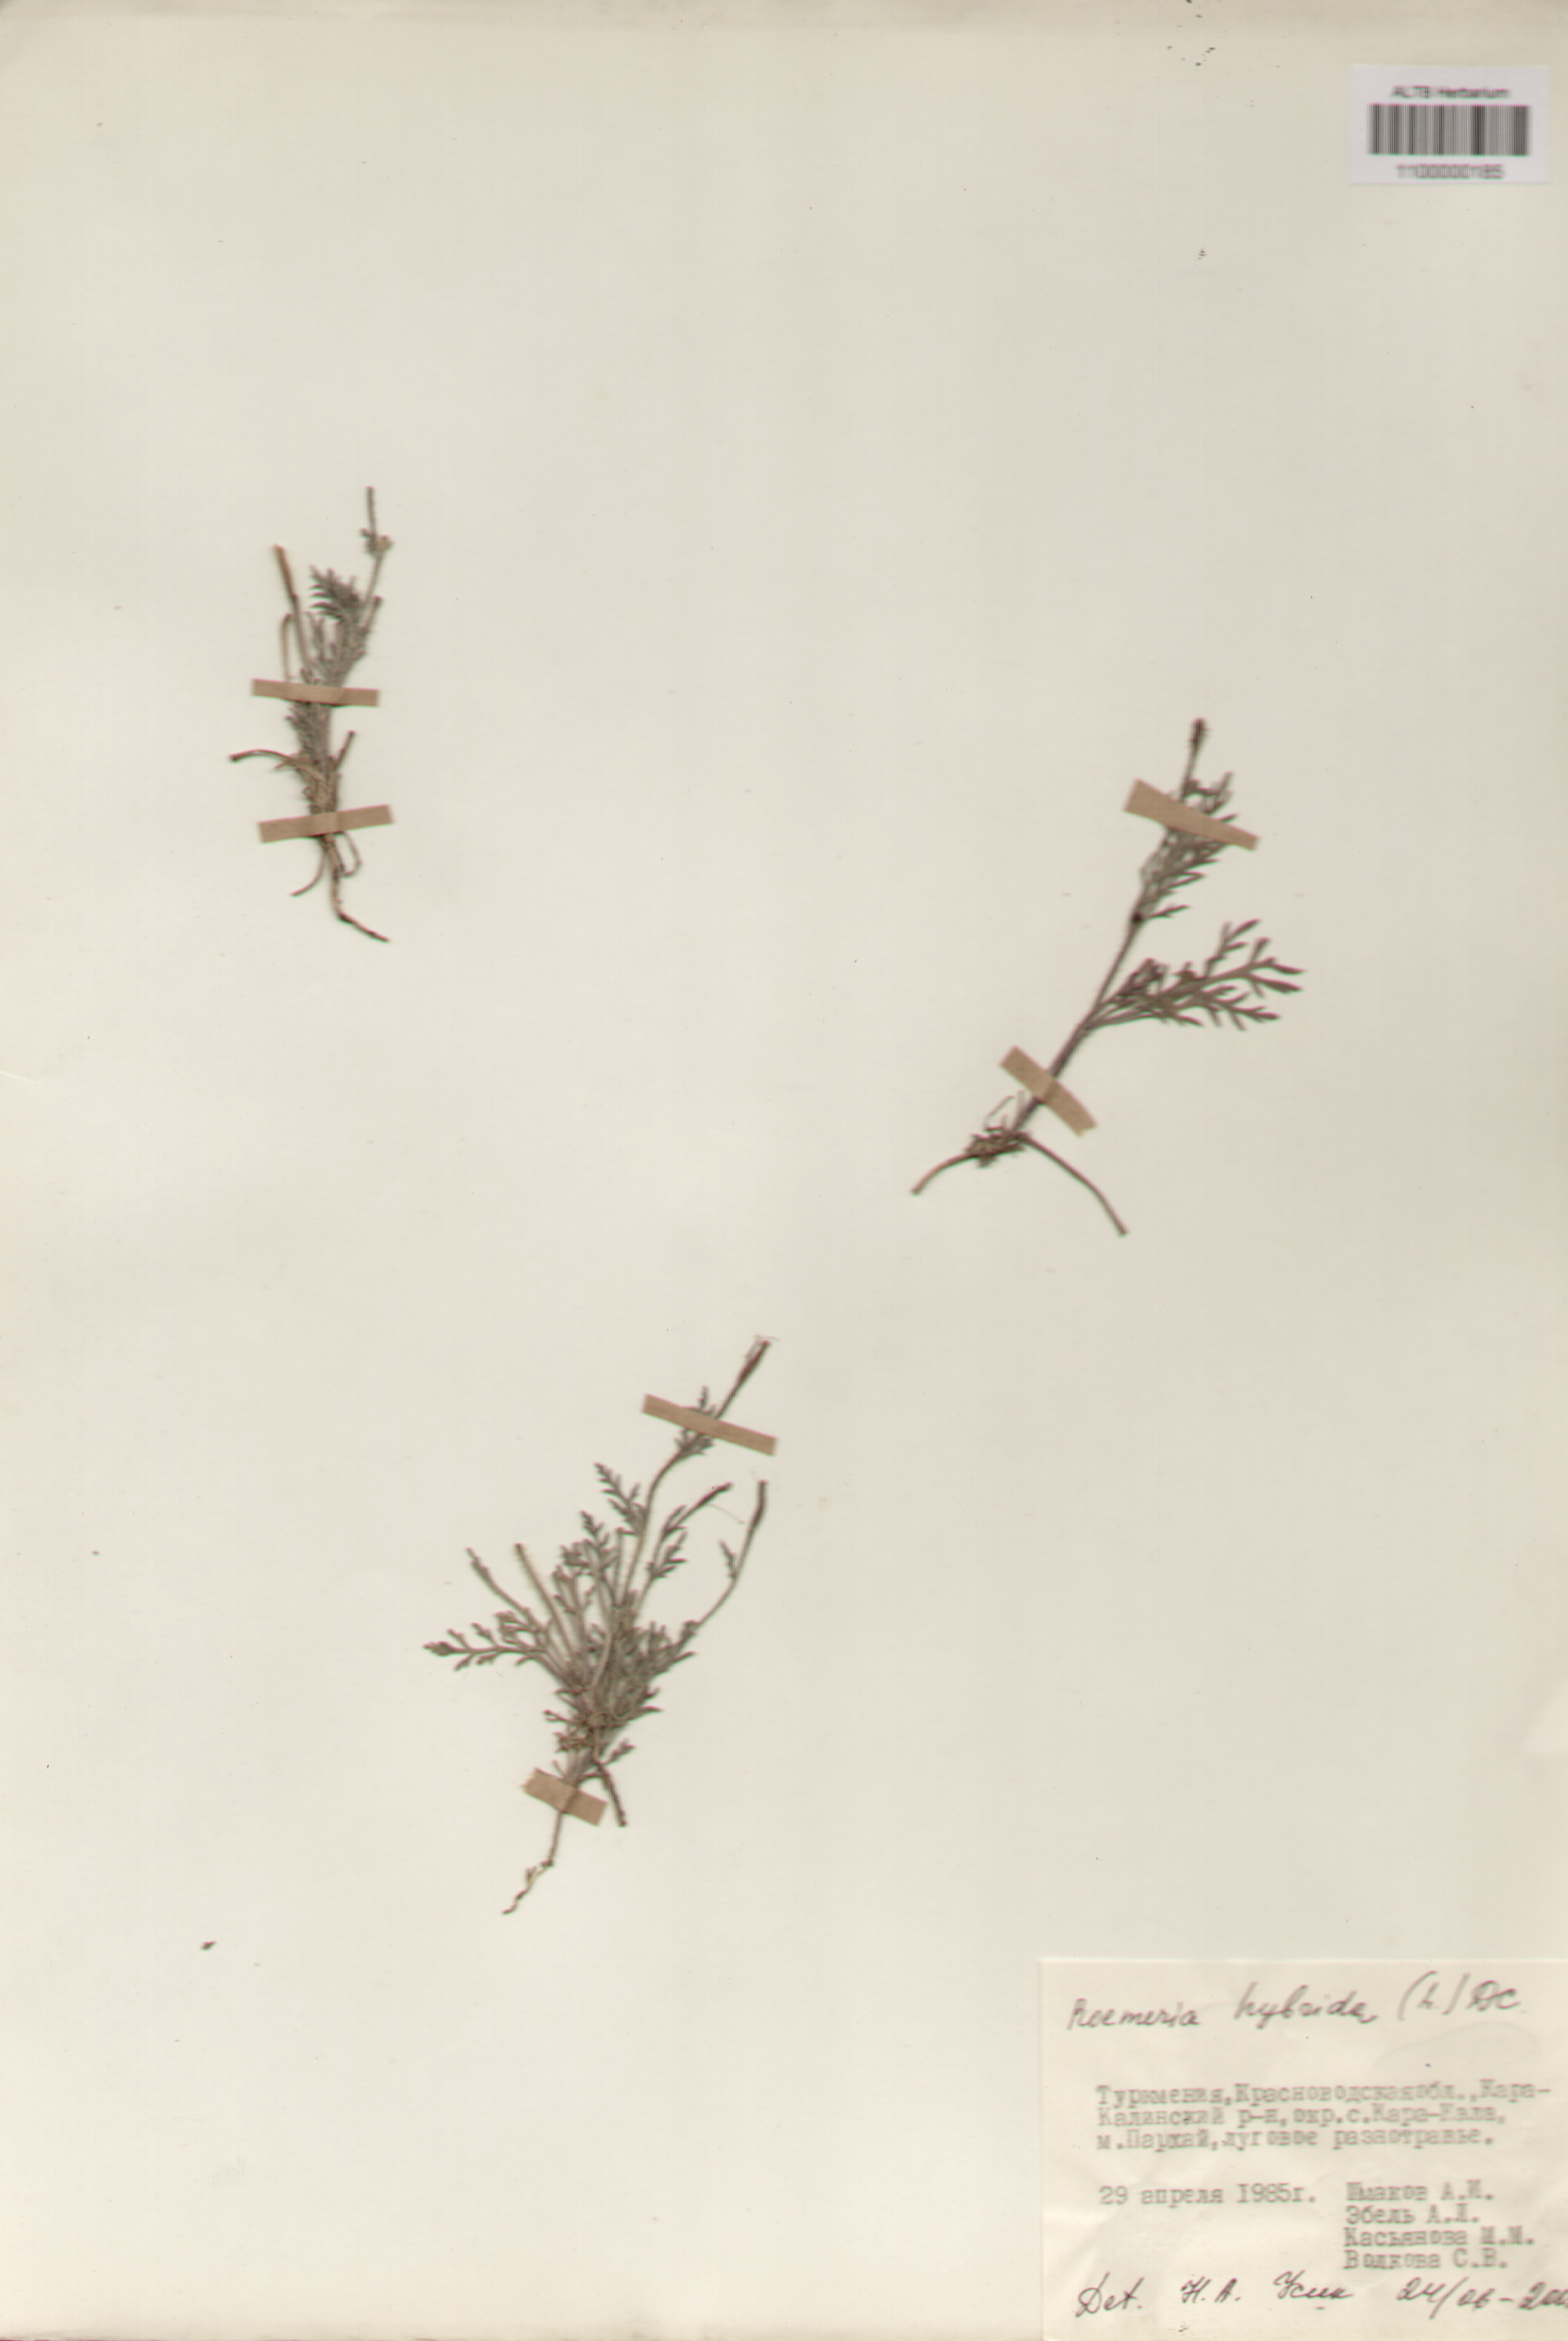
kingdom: Plantae
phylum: Tracheophyta
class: Magnoliopsida
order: Ranunculales
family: Papaveraceae
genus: Roemeria
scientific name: Roemeria hybrida
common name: Violet horned-poppy
